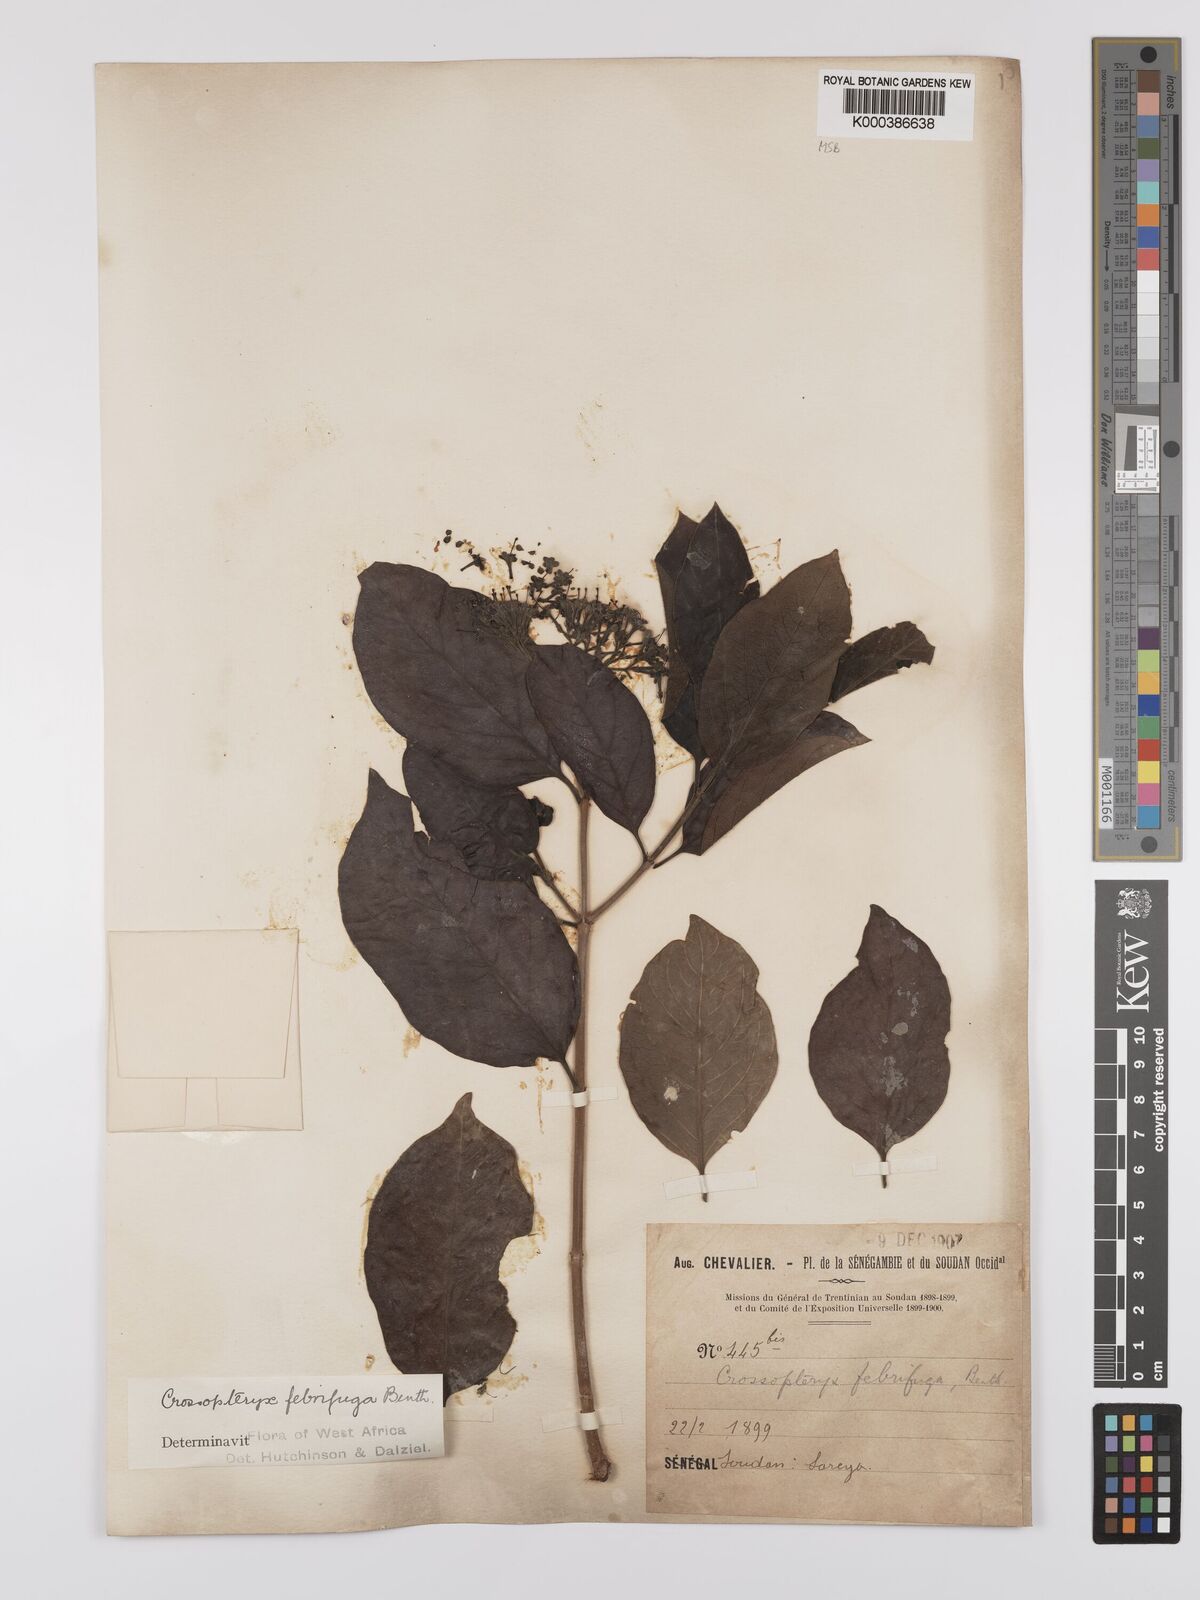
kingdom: Plantae
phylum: Tracheophyta
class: Magnoliopsida
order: Gentianales
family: Rubiaceae
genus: Crossopteryx
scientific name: Crossopteryx febrifuga
